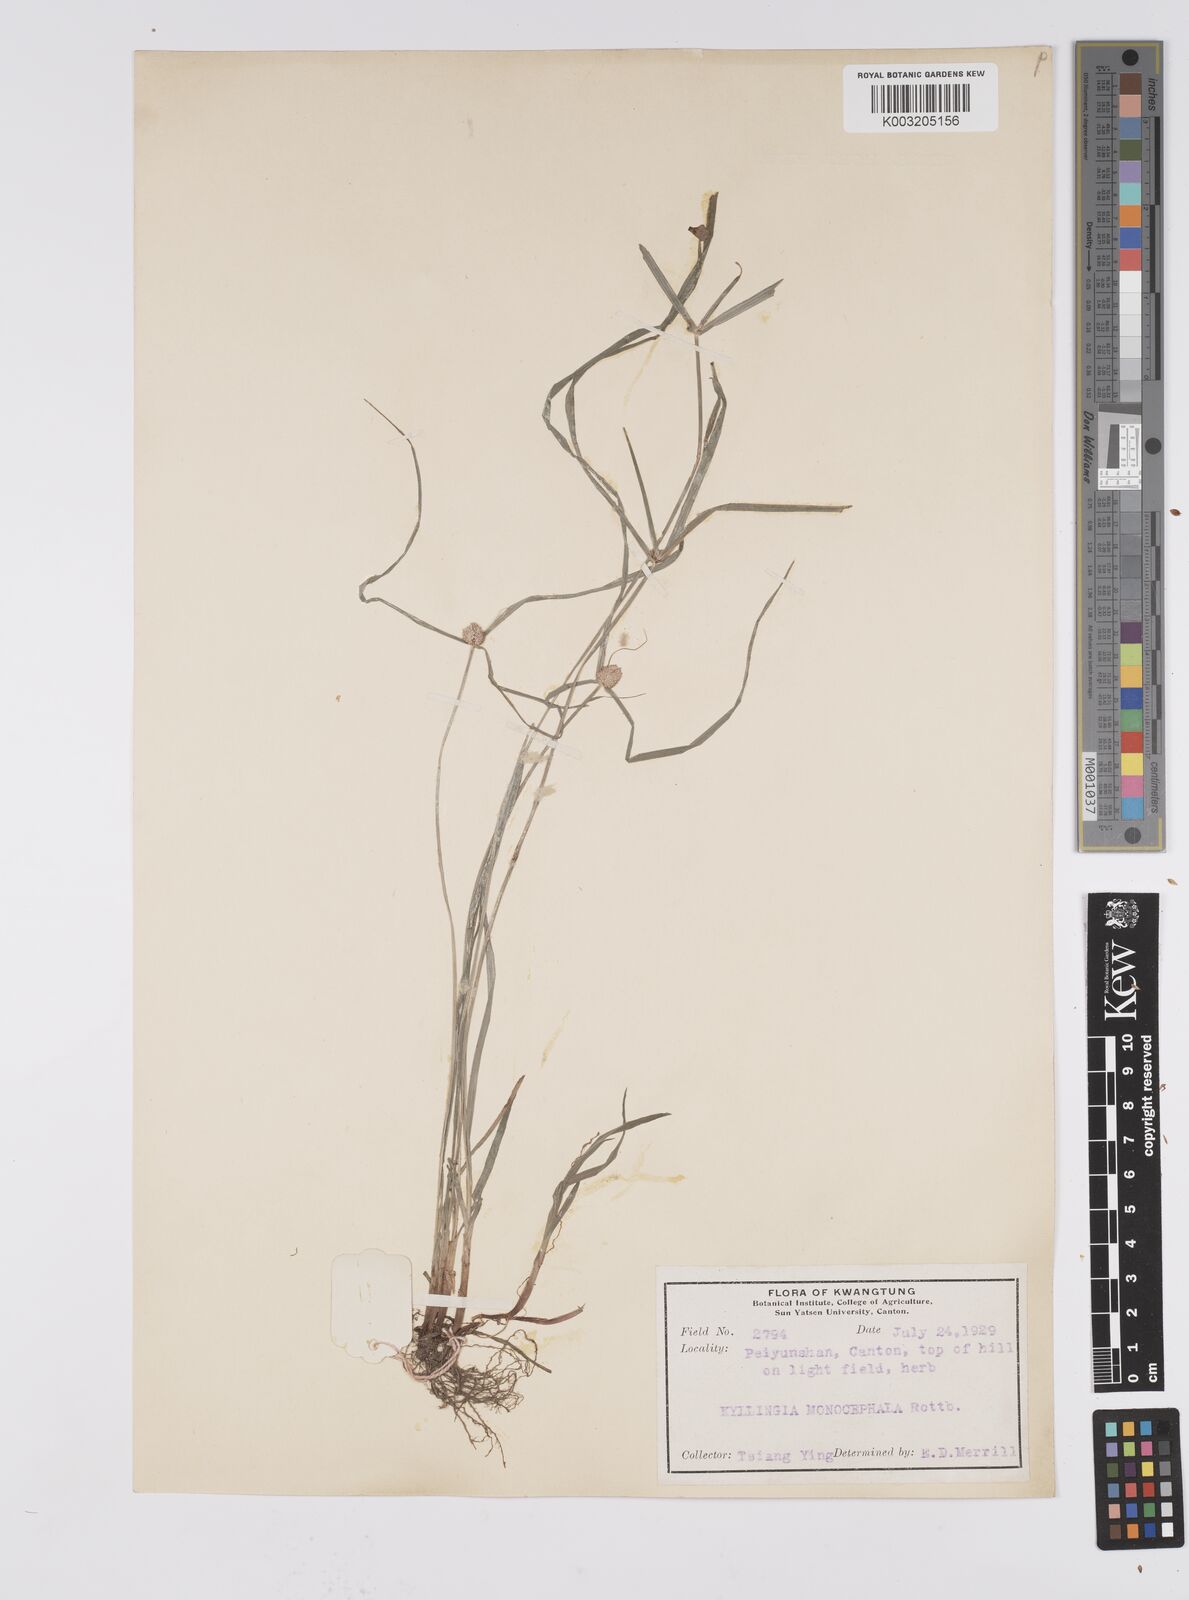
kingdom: Plantae
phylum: Tracheophyta
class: Liliopsida
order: Poales
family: Cyperaceae
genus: Cyperus
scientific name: Cyperus nemoralis
